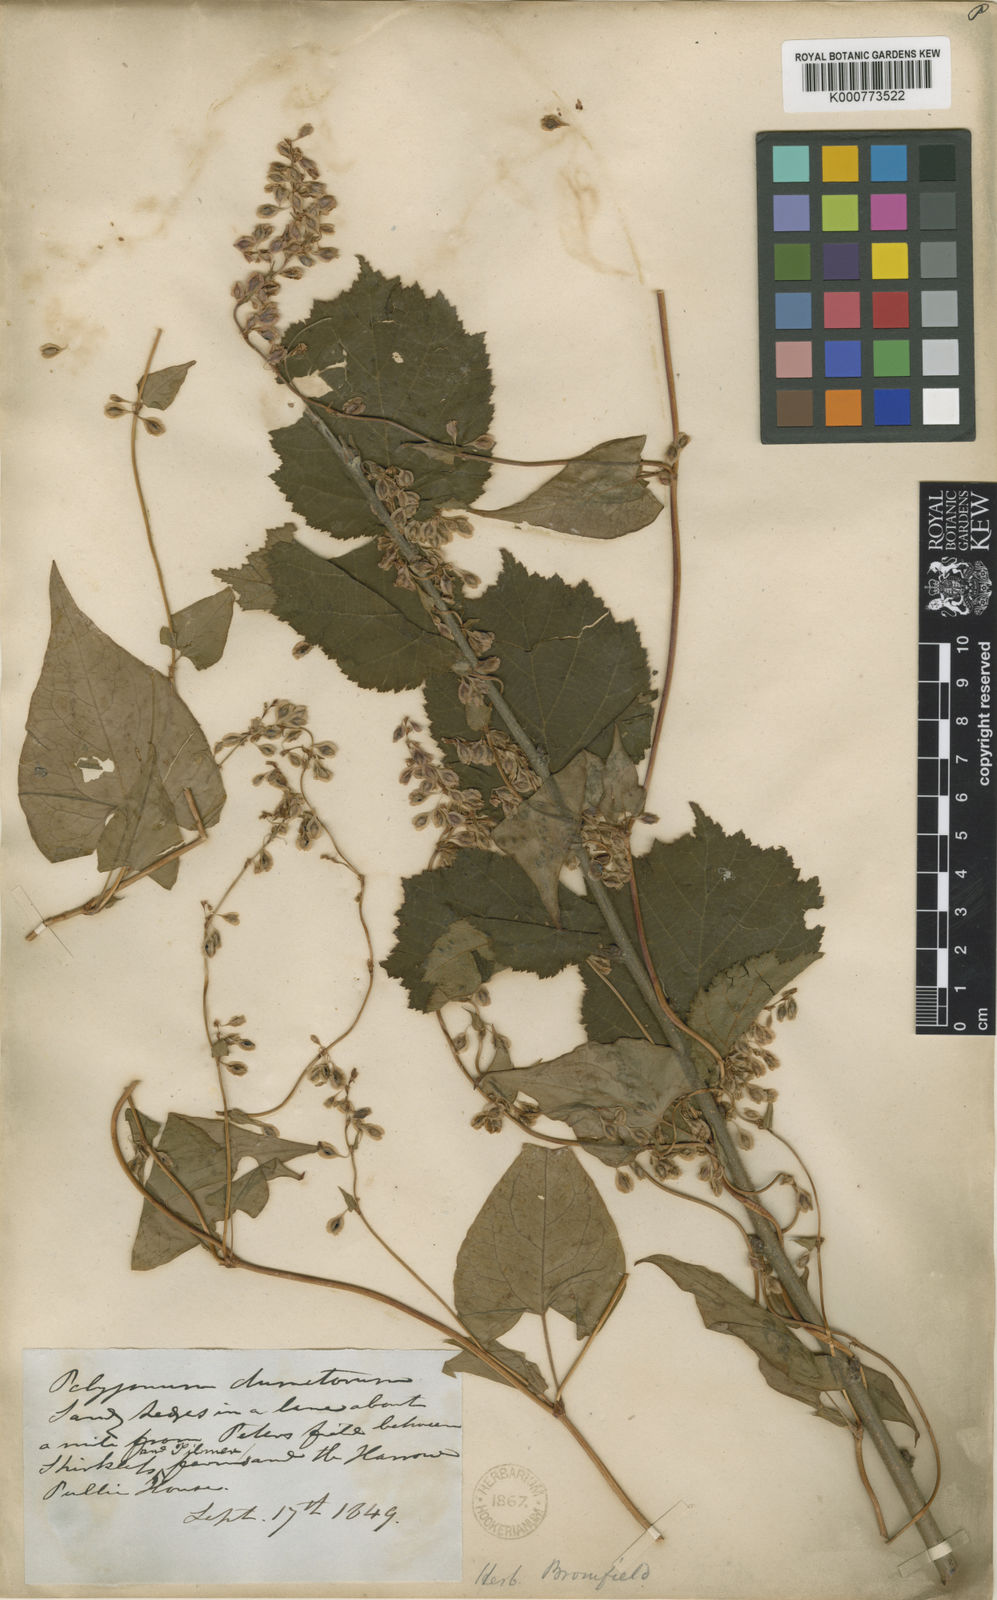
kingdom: Plantae
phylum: Tracheophyta
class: Magnoliopsida
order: Caryophyllales
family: Polygonaceae
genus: Fallopia
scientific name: Fallopia dumetorum
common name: Copse-bindweed
